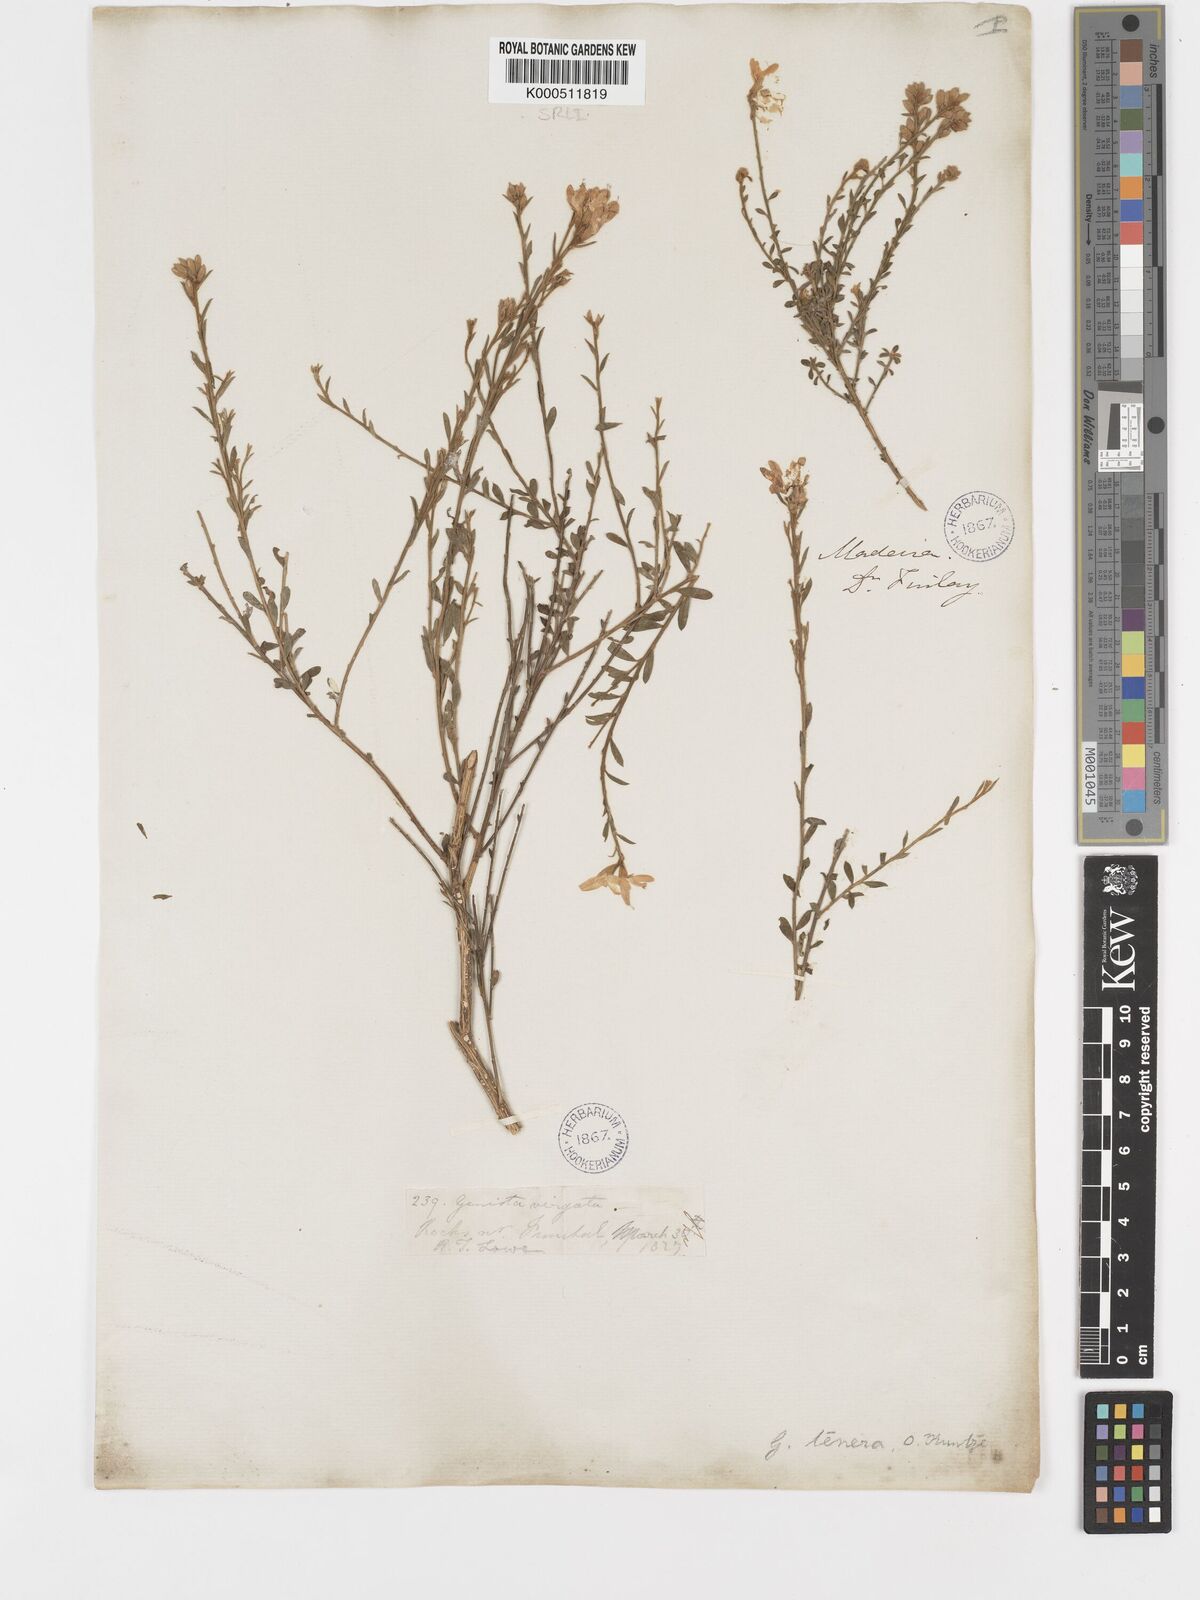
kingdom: Plantae
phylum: Tracheophyta
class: Magnoliopsida
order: Fabales
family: Fabaceae
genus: Genista
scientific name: Genista tenera
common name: Madeira broom
